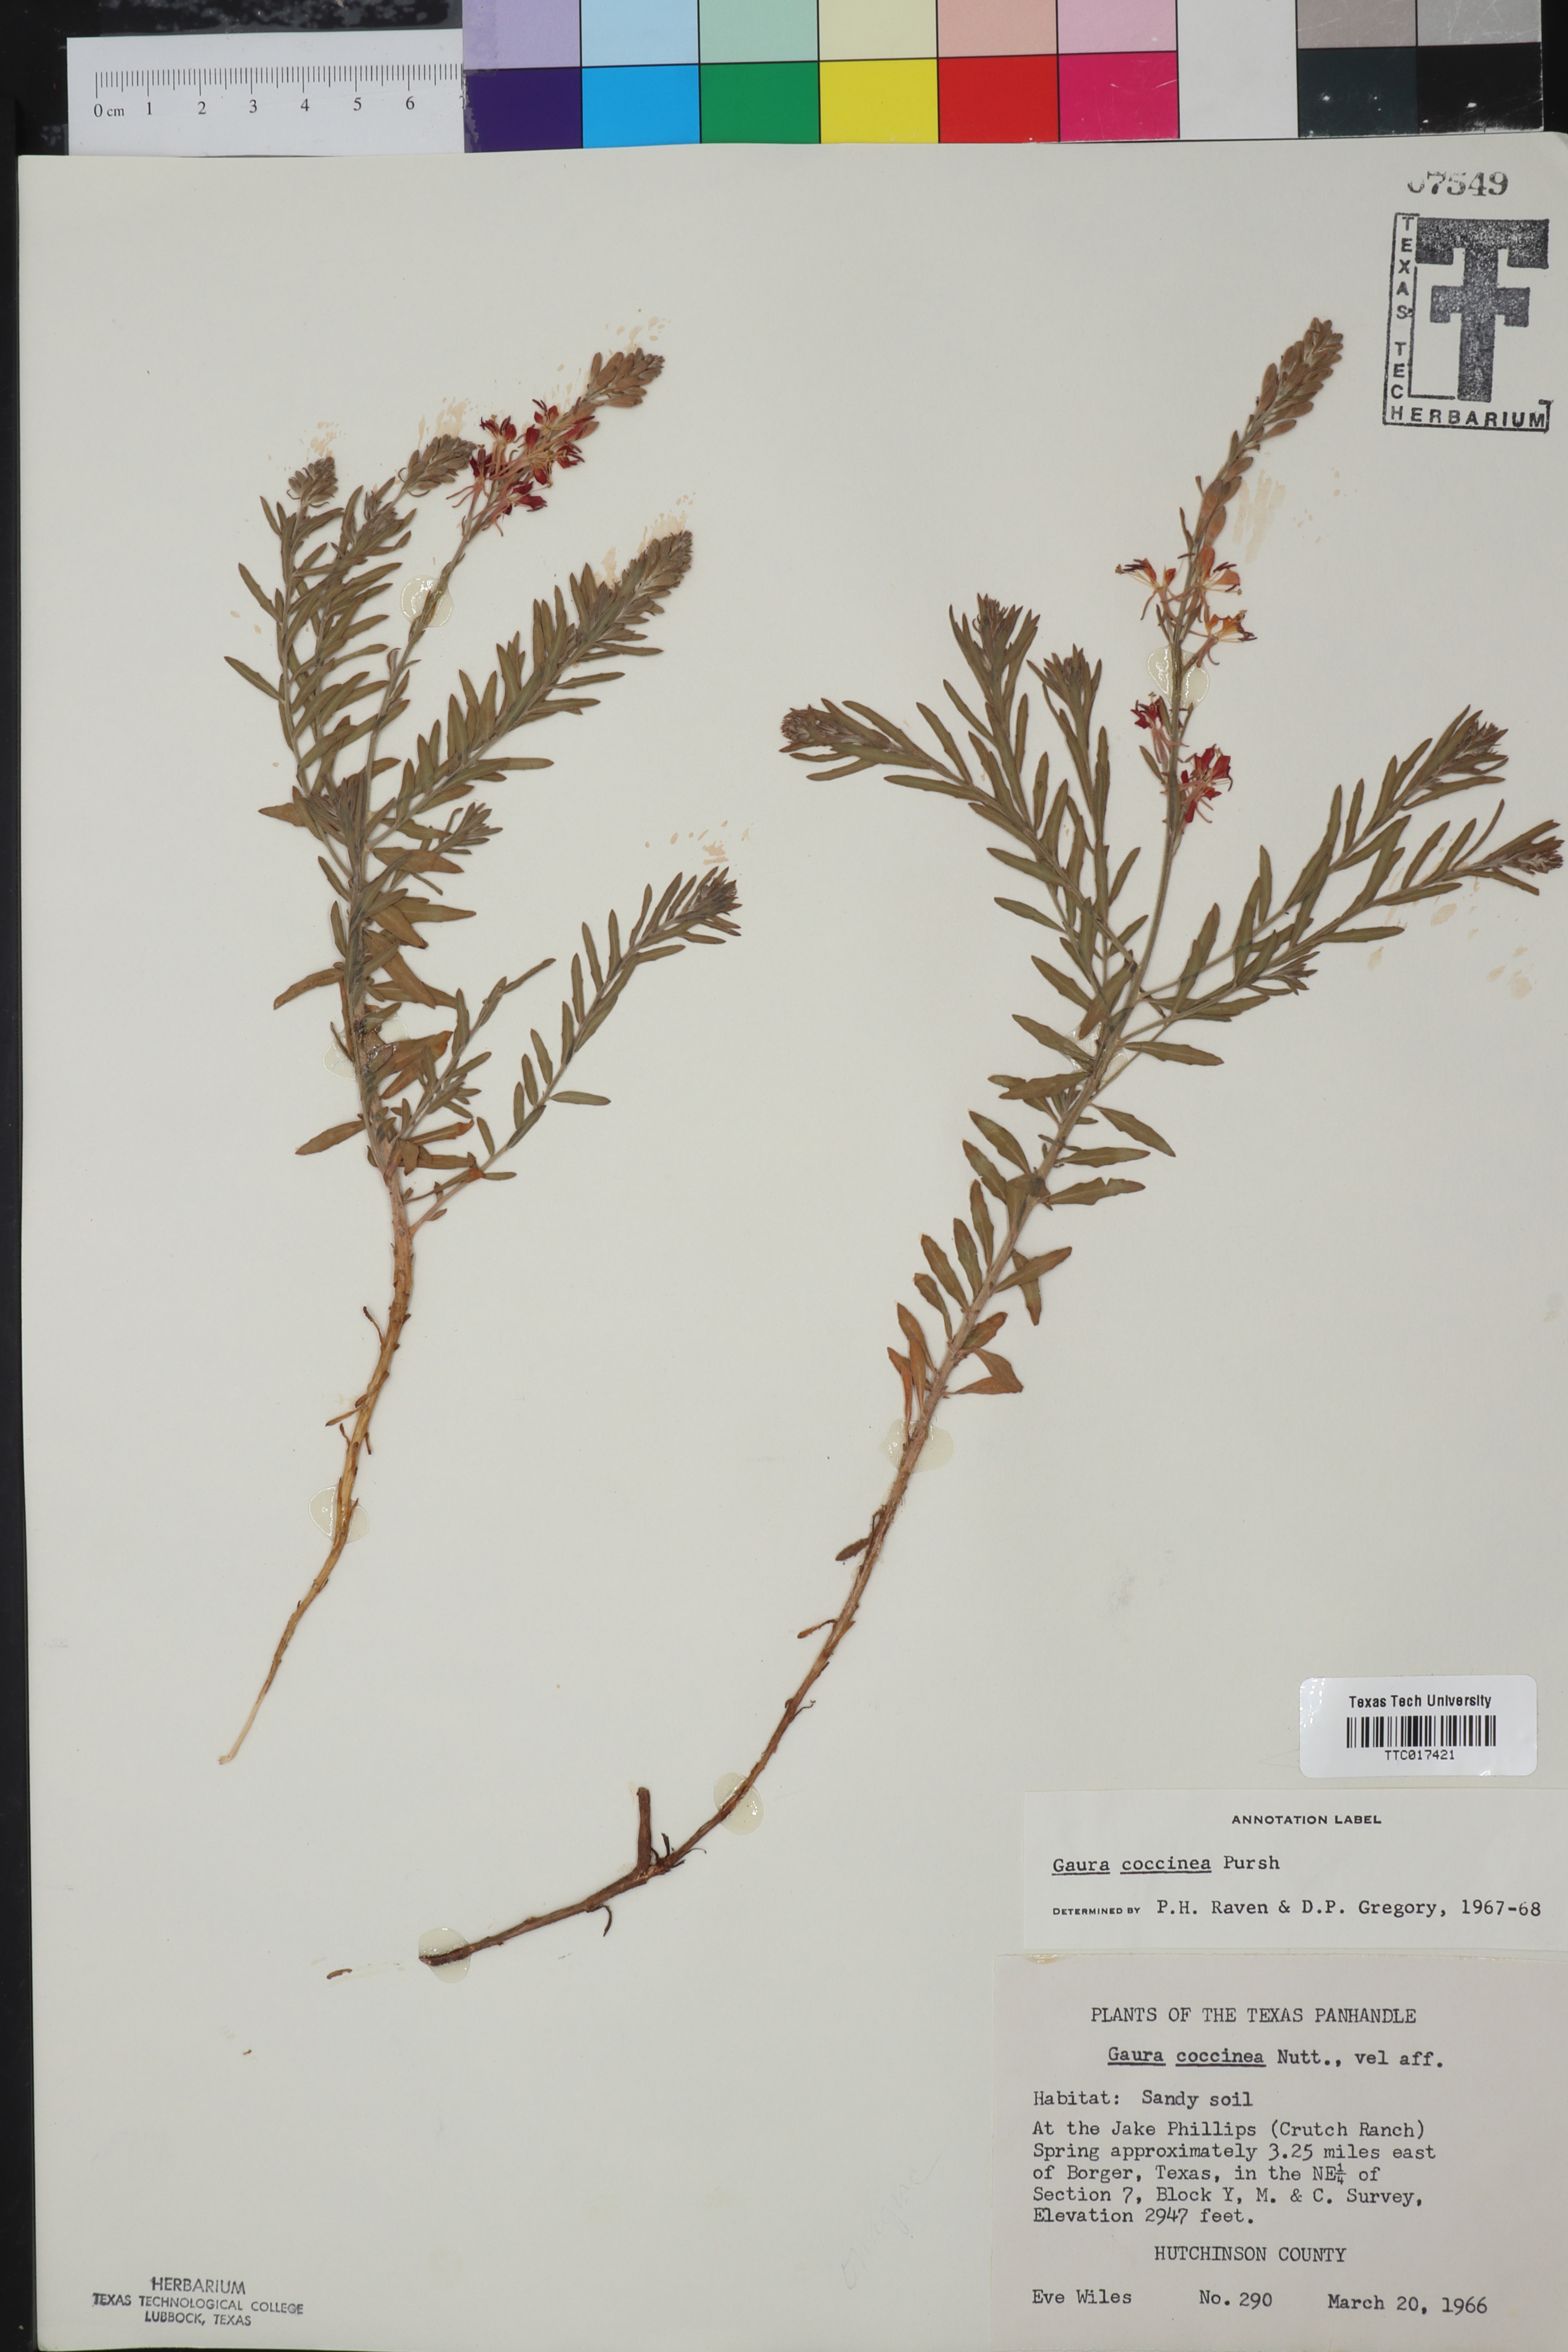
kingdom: Plantae
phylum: Tracheophyta
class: Magnoliopsida
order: Myrtales
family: Onagraceae
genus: Oenothera
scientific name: Oenothera suffrutescens
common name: Scarlet beeblossom
